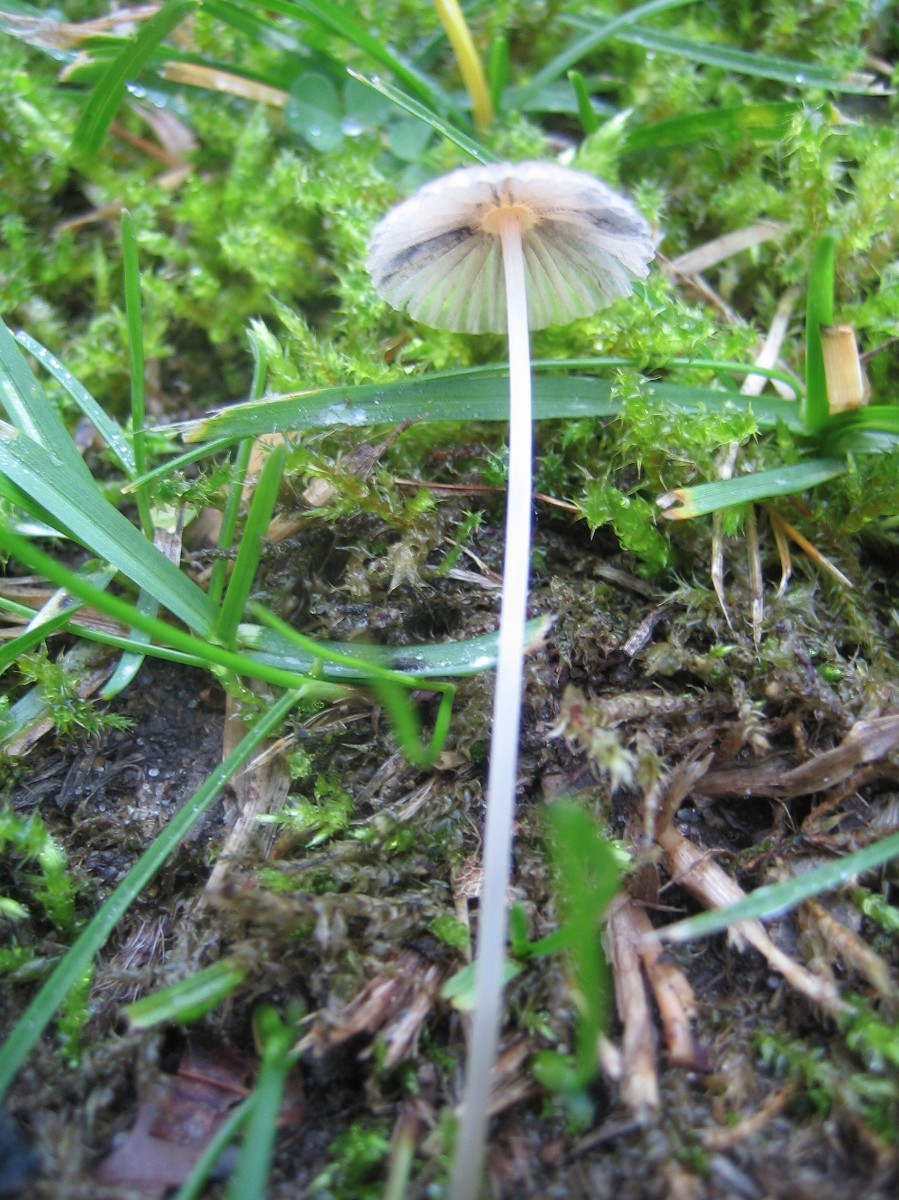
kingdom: Fungi
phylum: Basidiomycota
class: Agaricomycetes
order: Agaricales
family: Psathyrellaceae
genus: Parasola
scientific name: Parasola
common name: hjulhat
